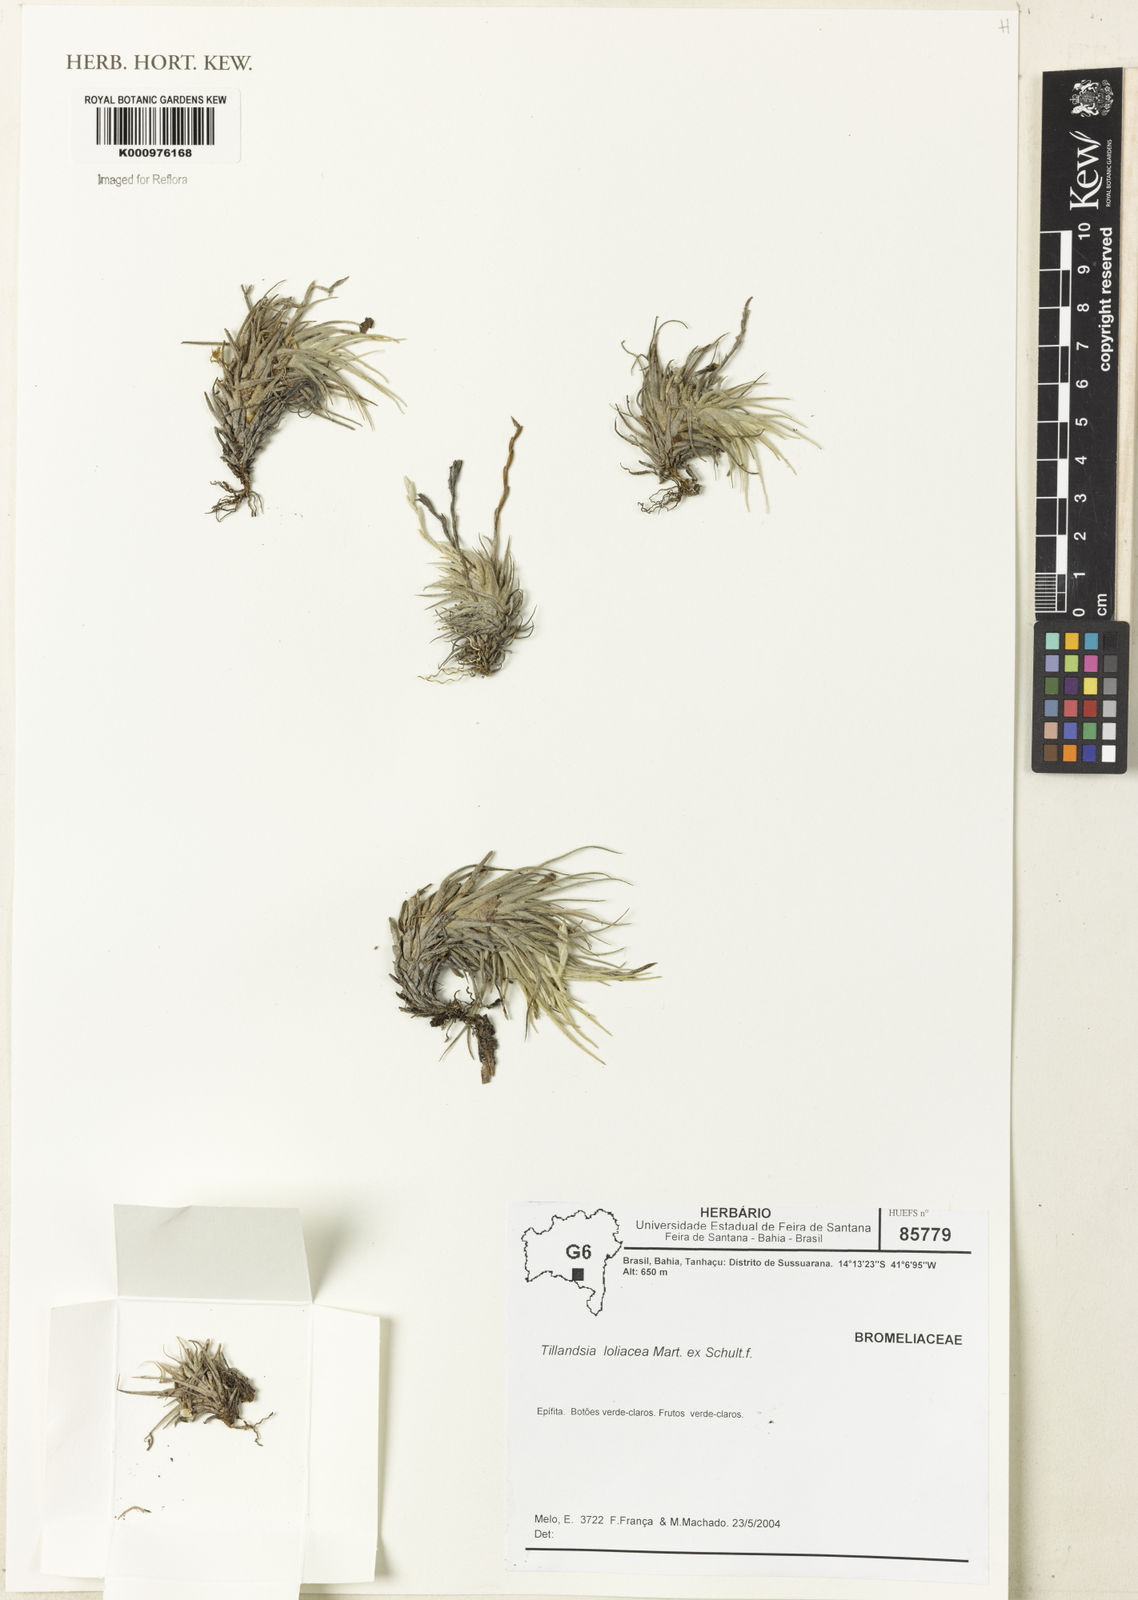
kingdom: Plantae
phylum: Tracheophyta
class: Liliopsida
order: Poales
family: Bromeliaceae
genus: Tillandsia
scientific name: Tillandsia loliacea
